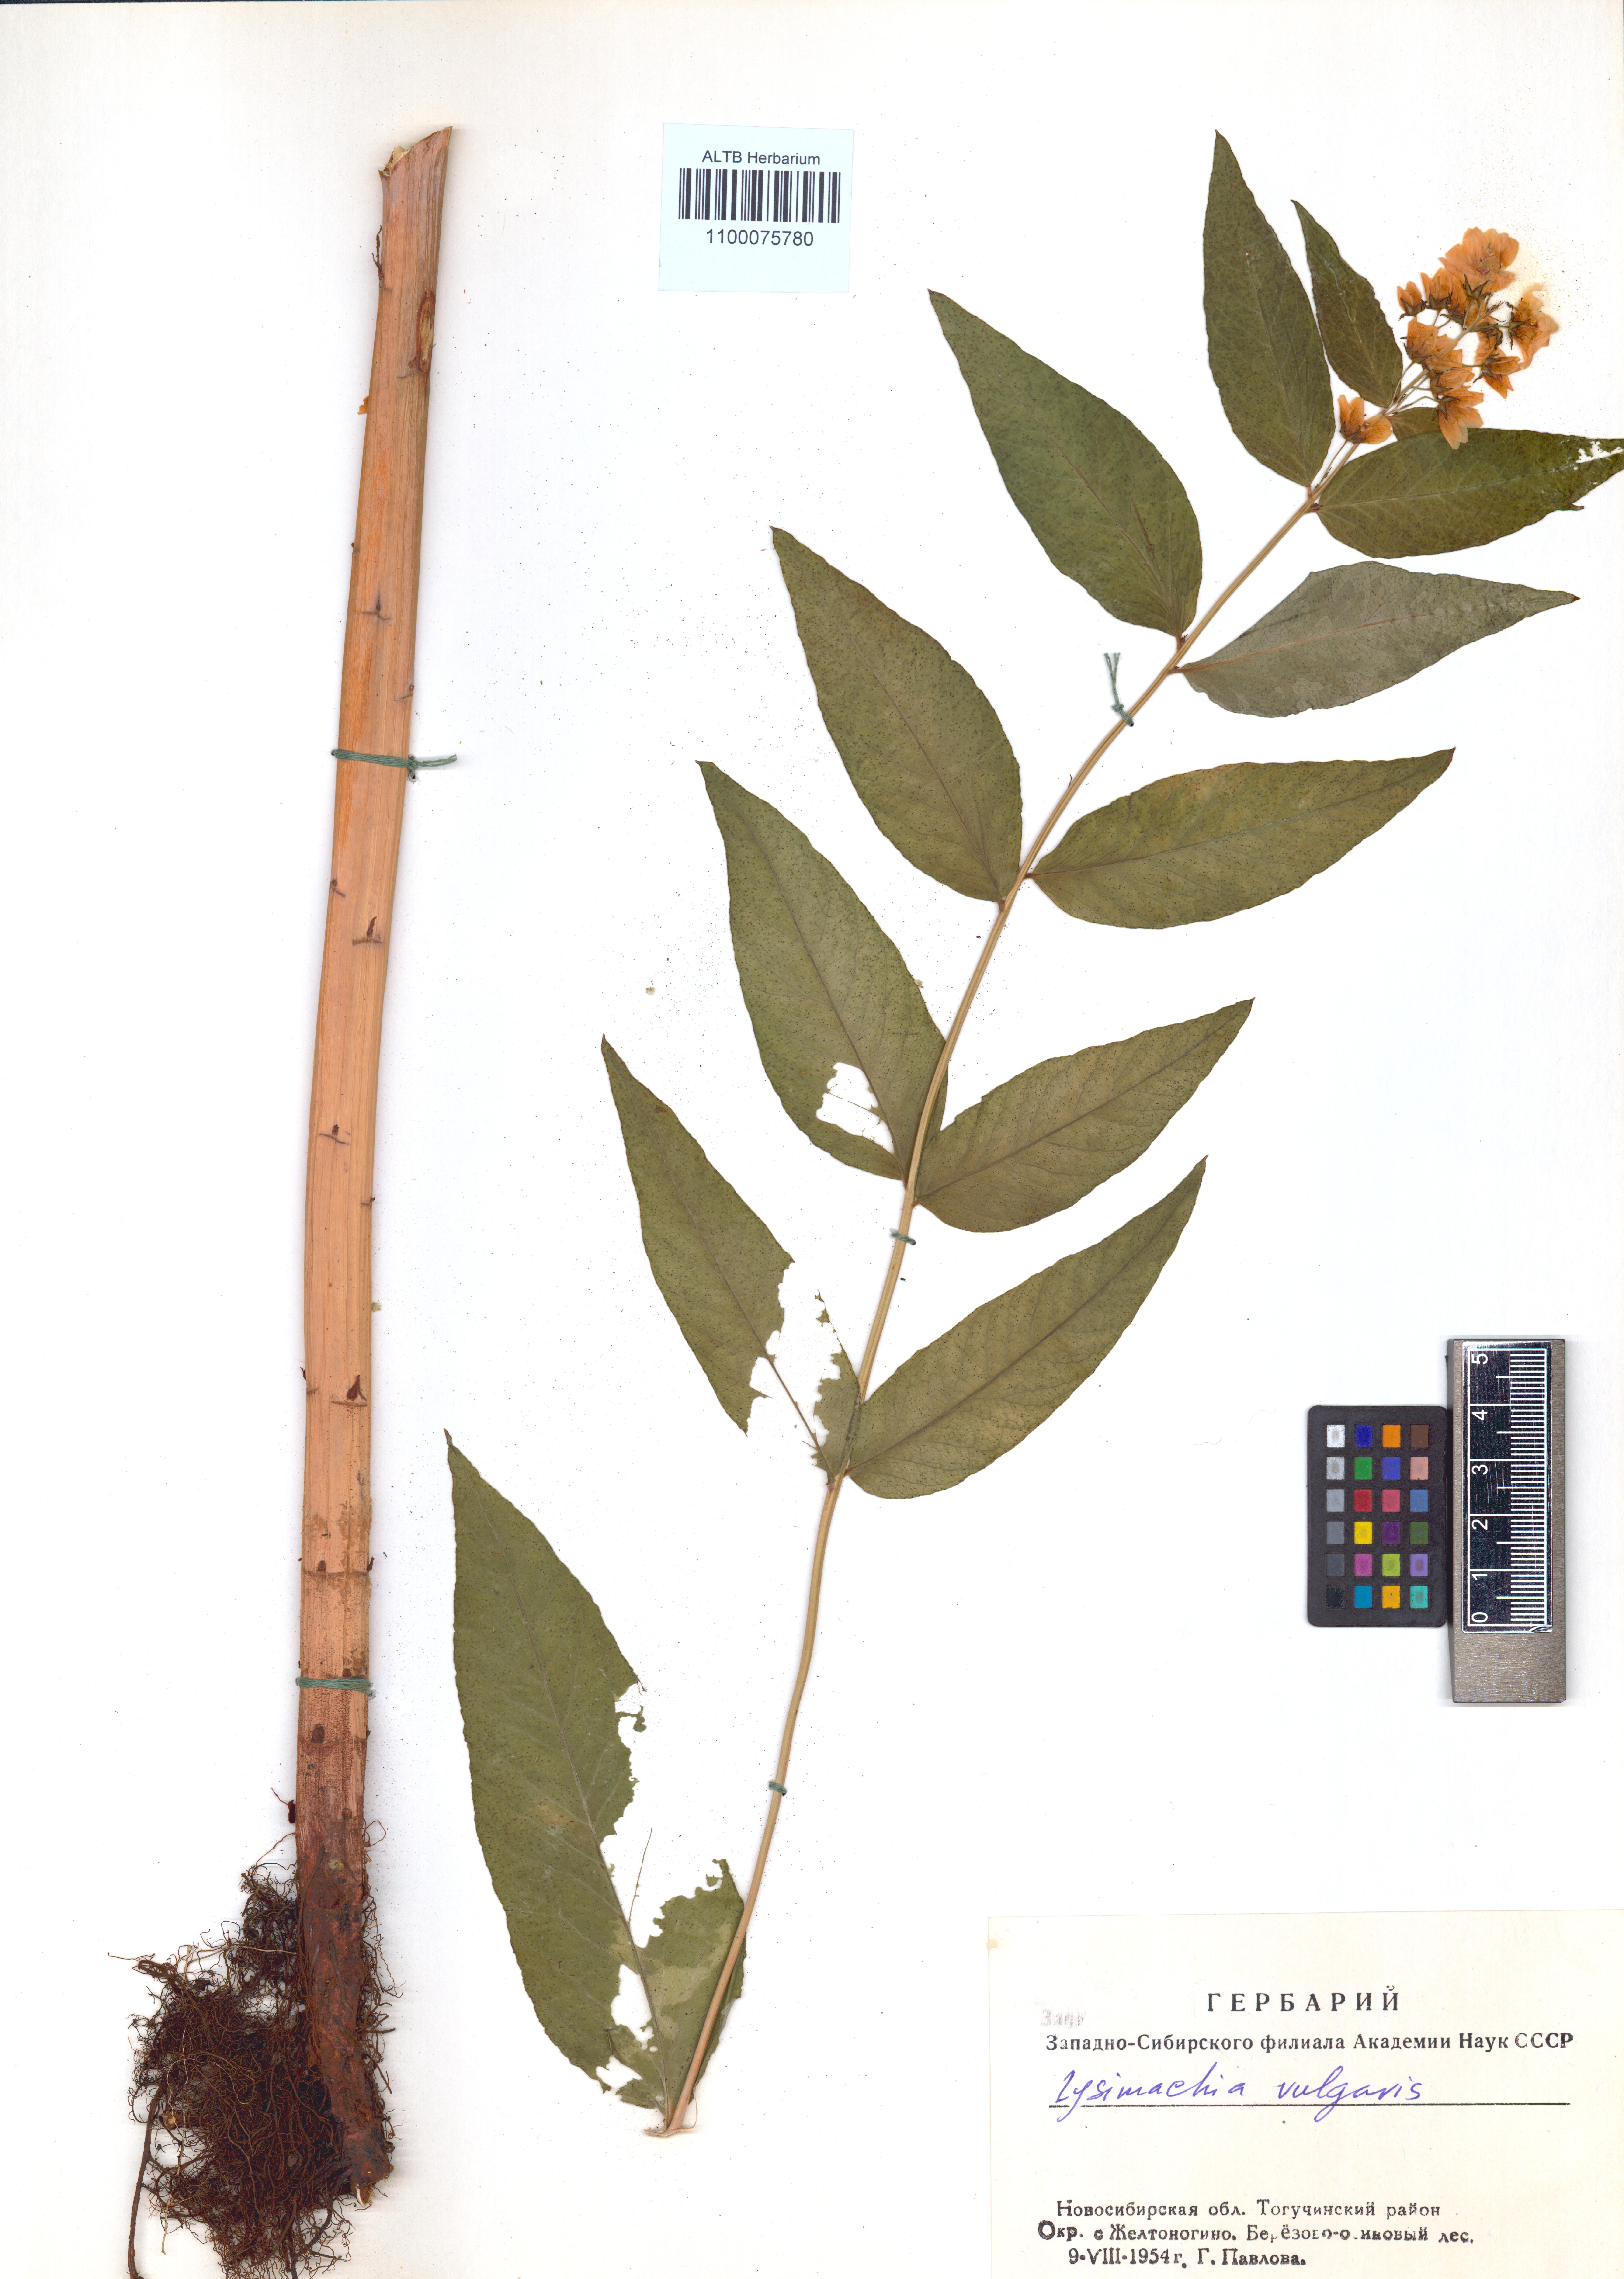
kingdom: Plantae
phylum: Tracheophyta
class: Magnoliopsida
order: Ericales
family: Primulaceae
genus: Lysimachia
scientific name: Lysimachia vulgaris
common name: Yellow loosestrife
